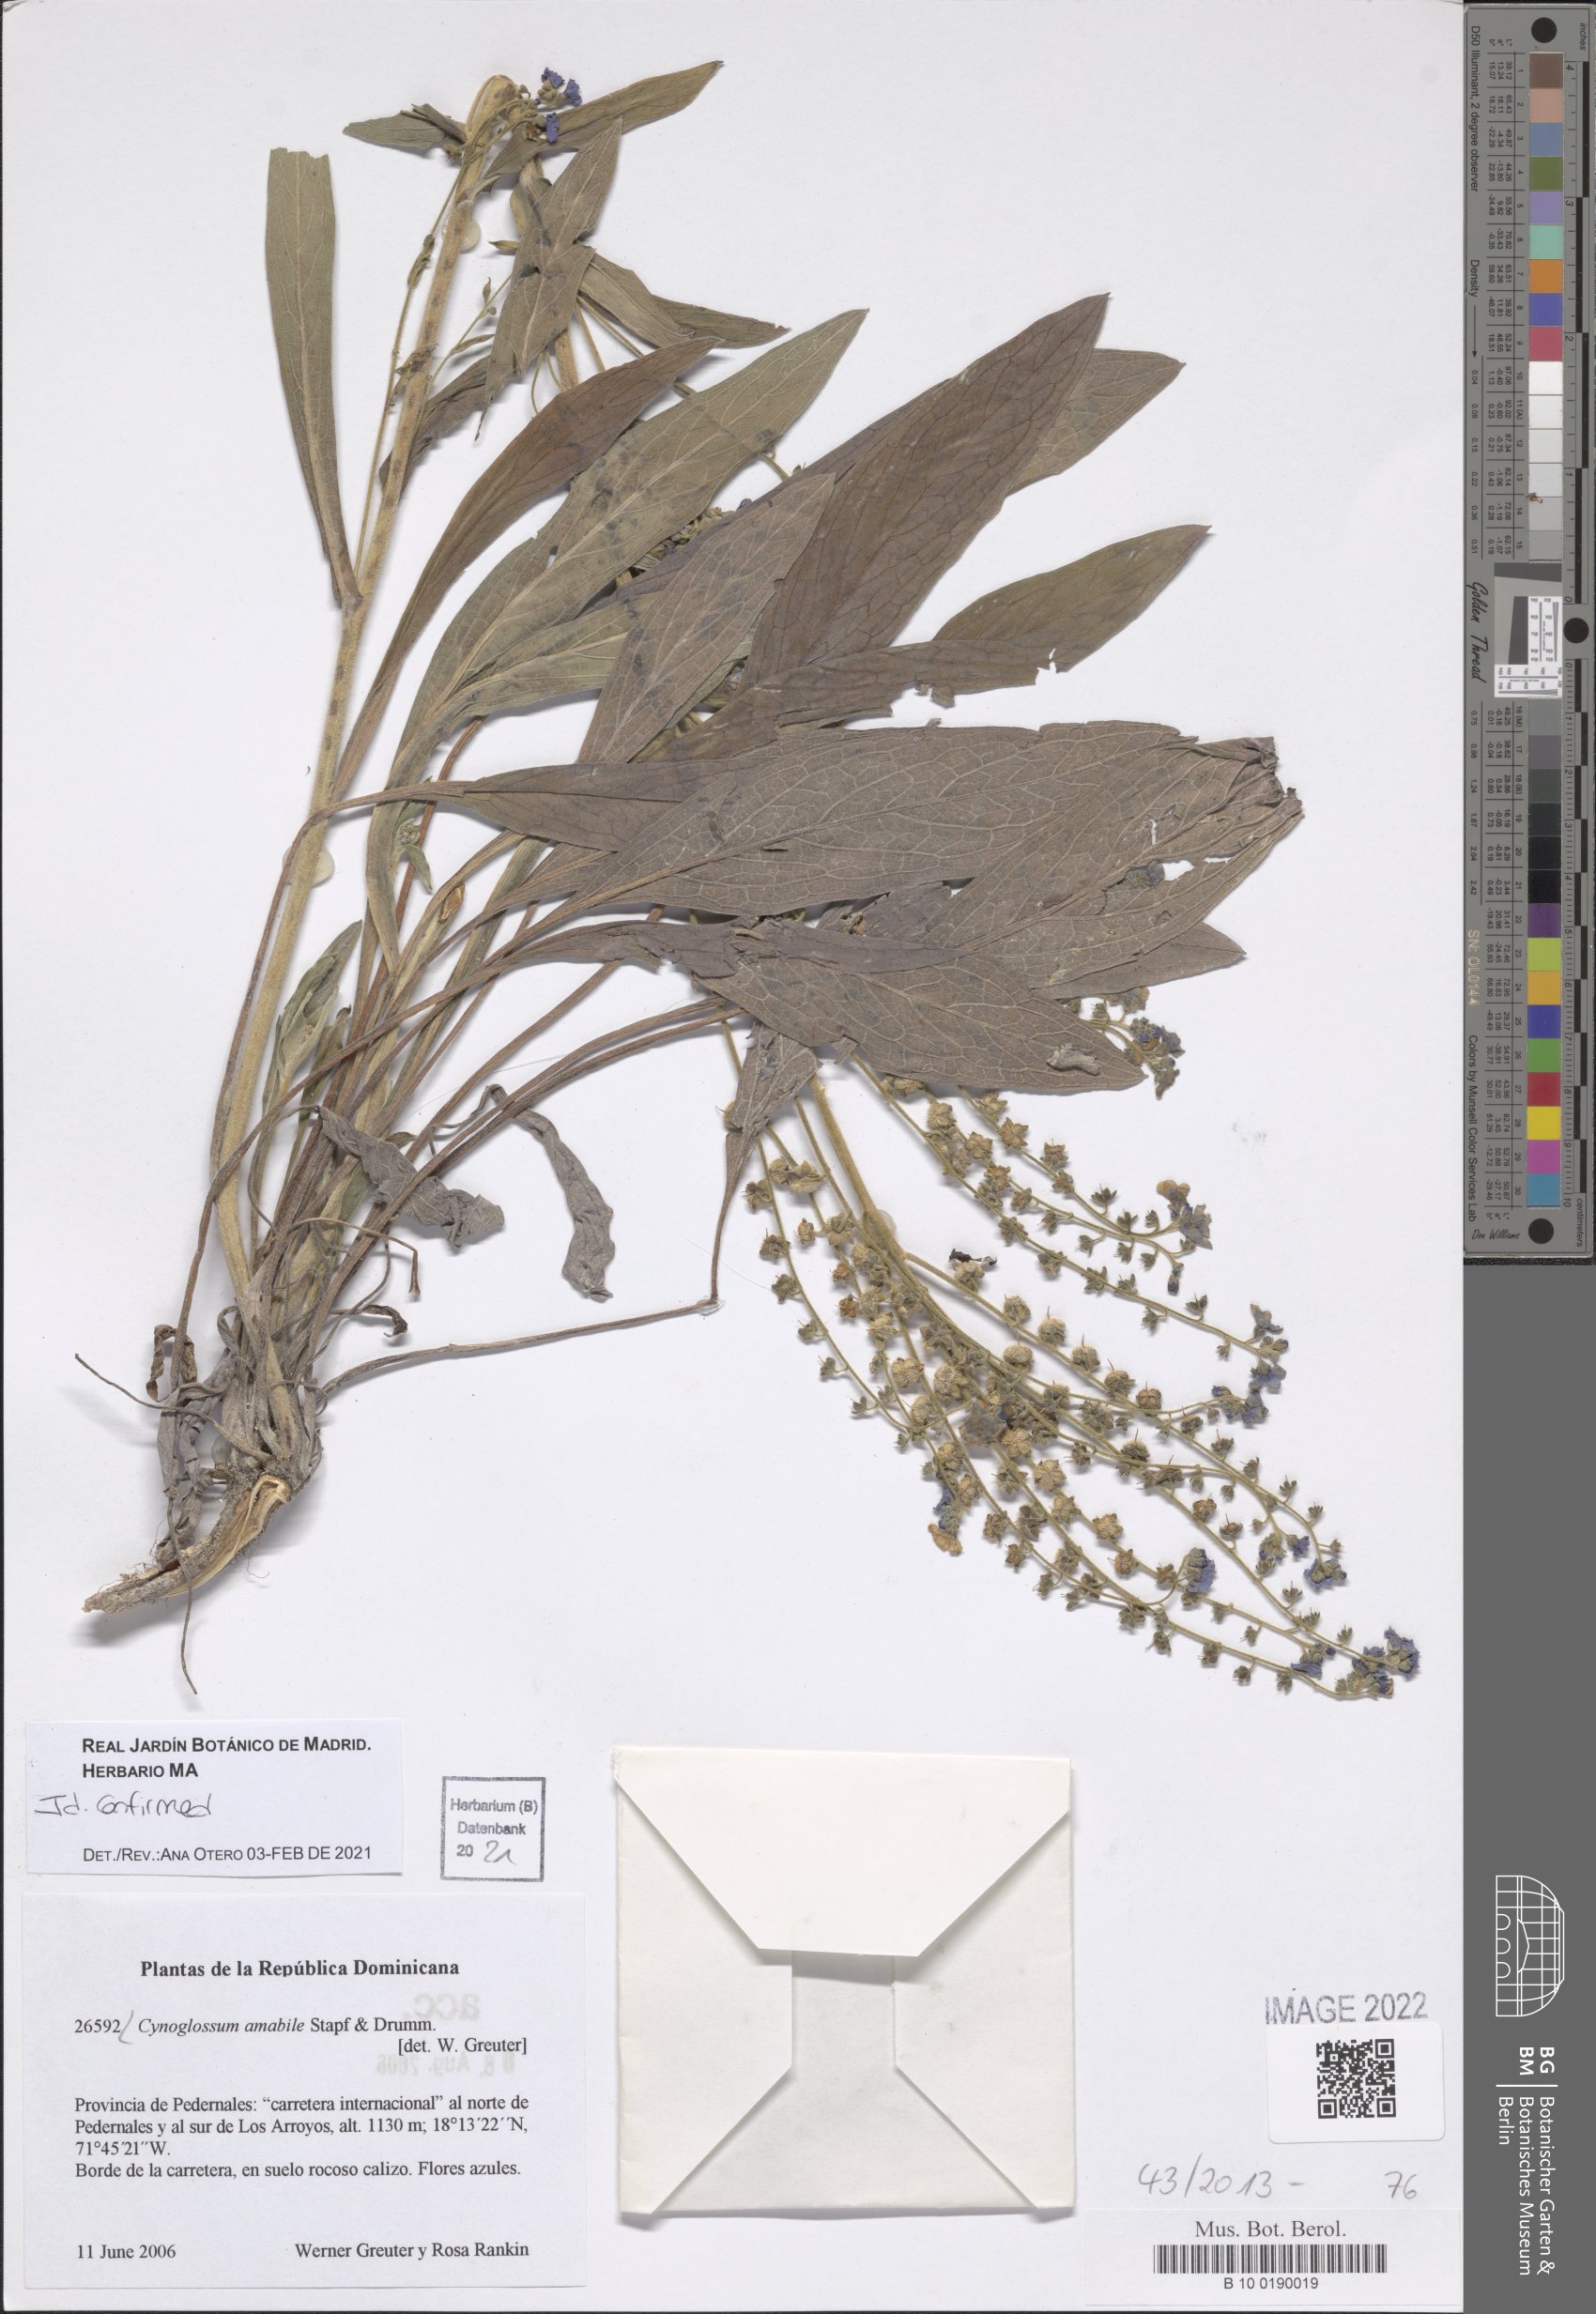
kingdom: Plantae
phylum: Tracheophyta
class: Magnoliopsida
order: Boraginales
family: Boraginaceae
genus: Cynoglossum
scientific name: Cynoglossum amabile
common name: Chinese hound's tongue
